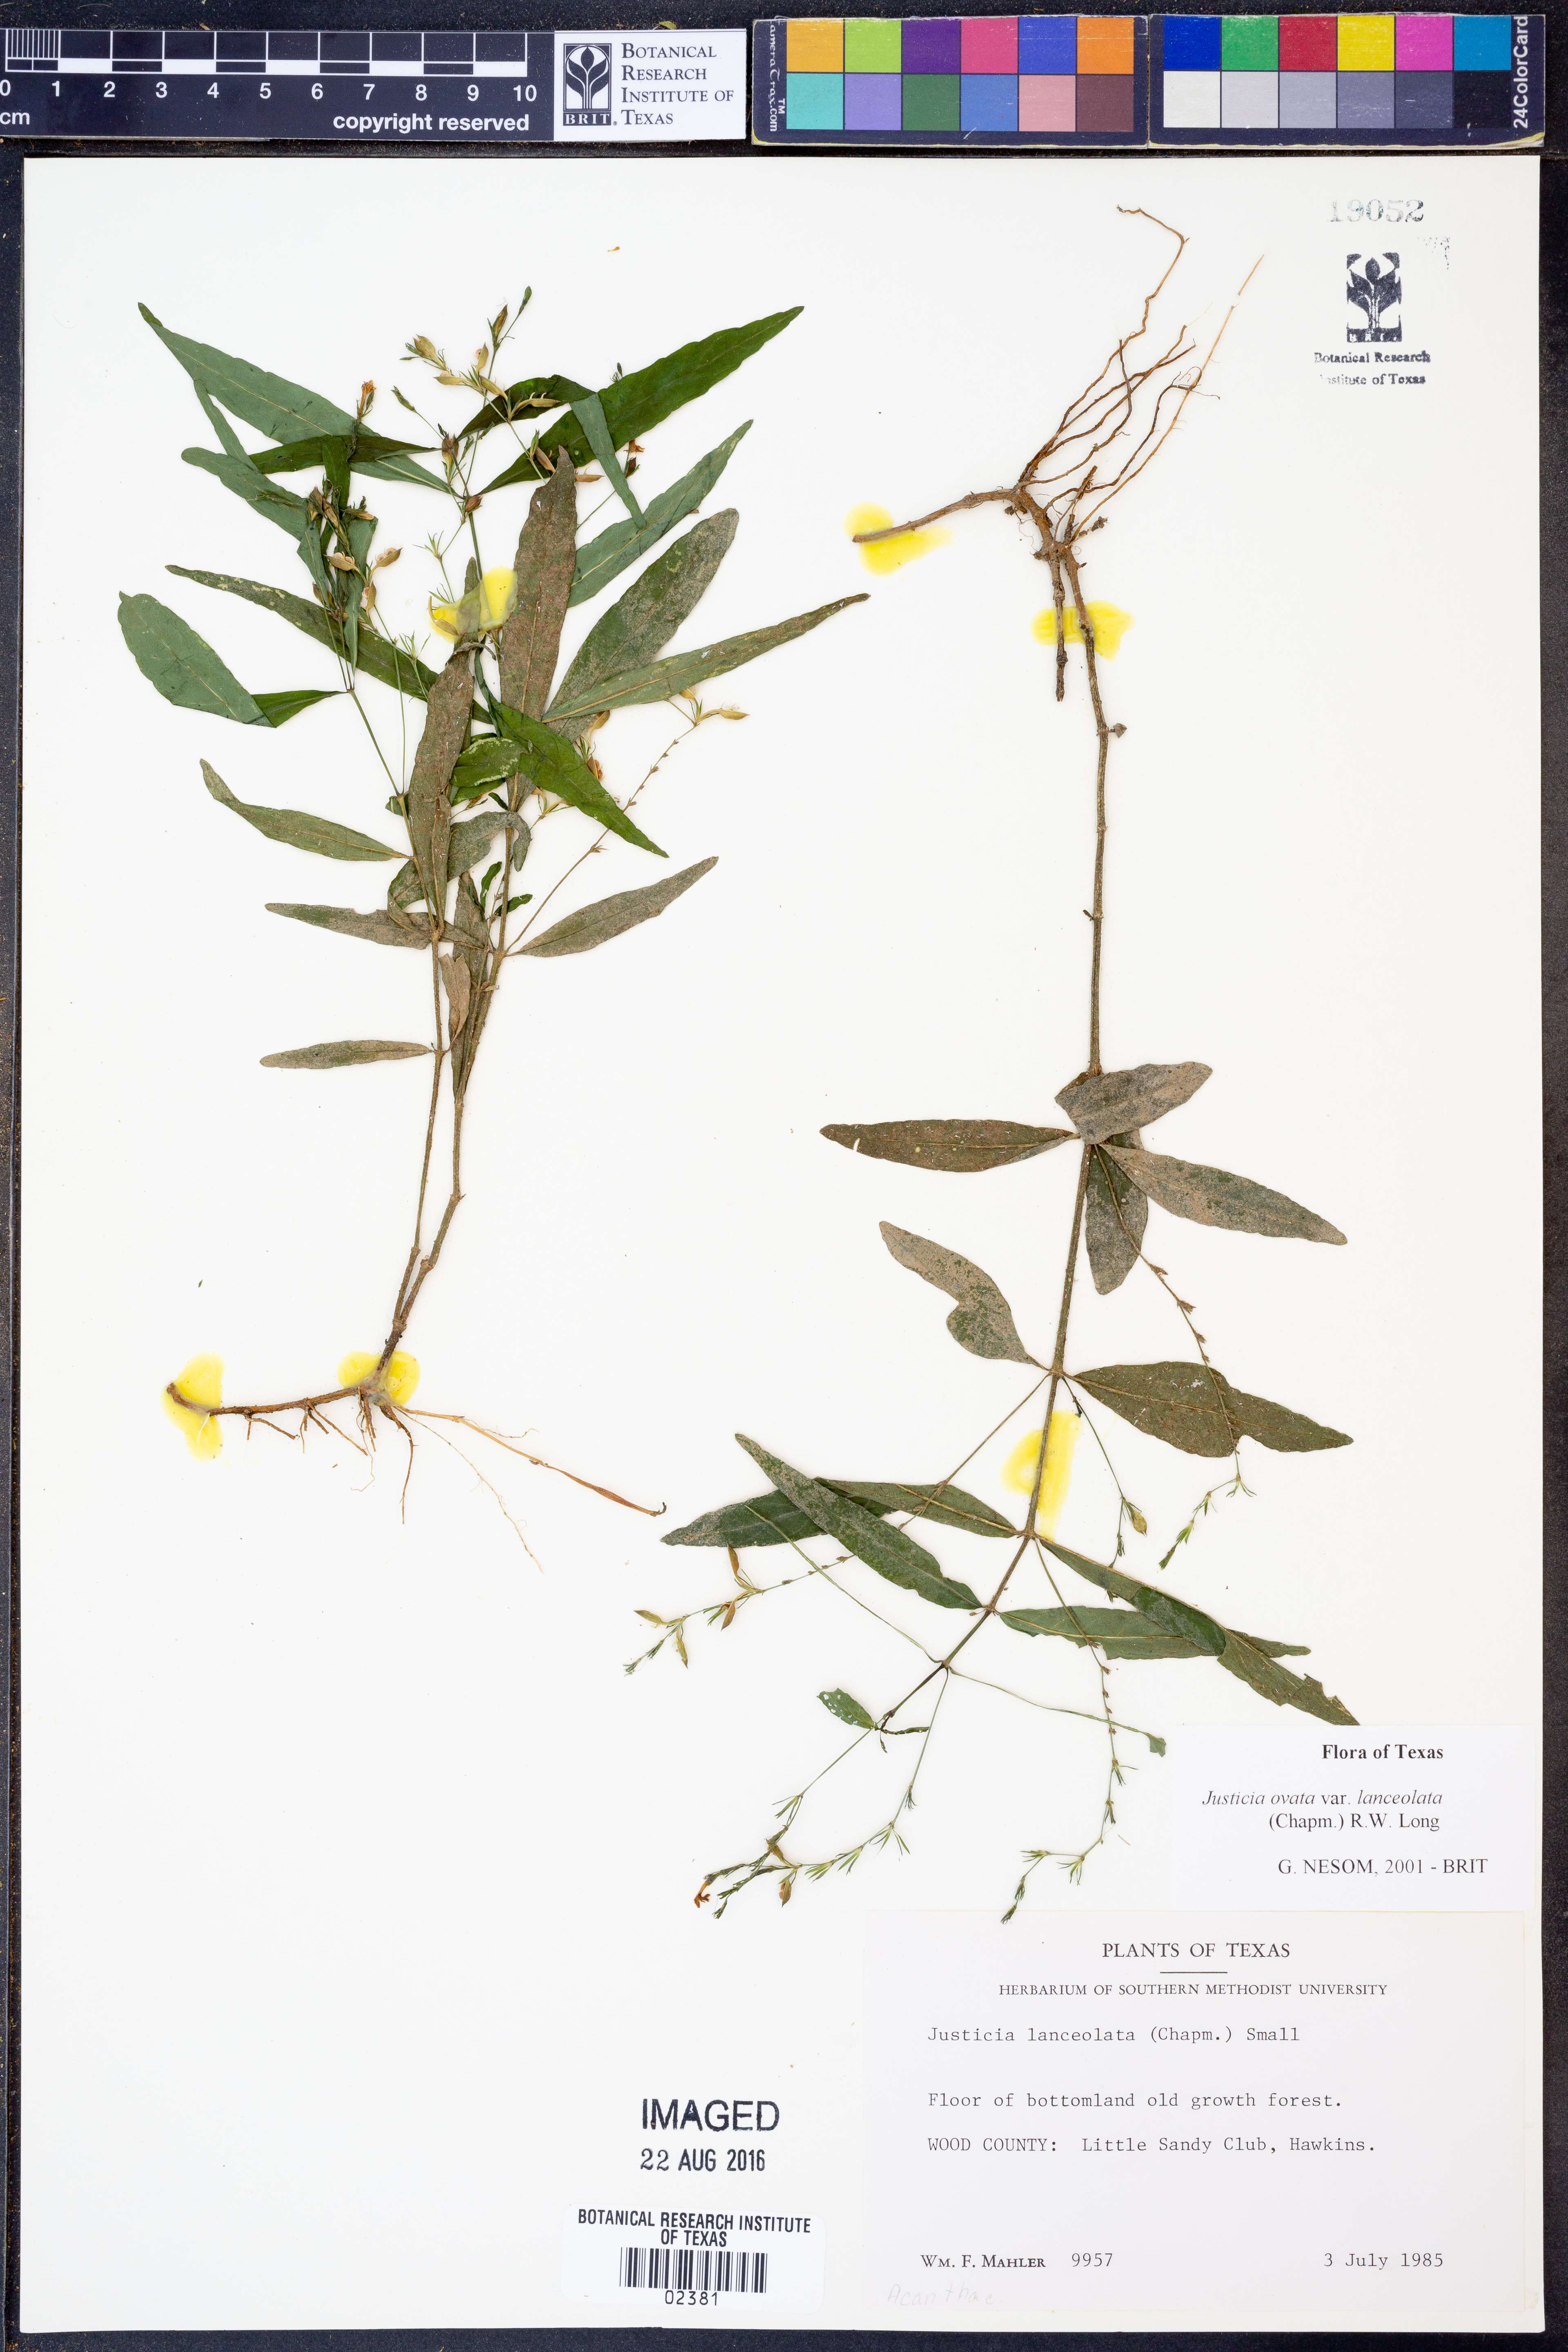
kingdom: Plantae
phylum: Tracheophyta
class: Magnoliopsida
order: Lamiales
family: Acanthaceae
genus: Justicia
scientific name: Justicia lanceolata
